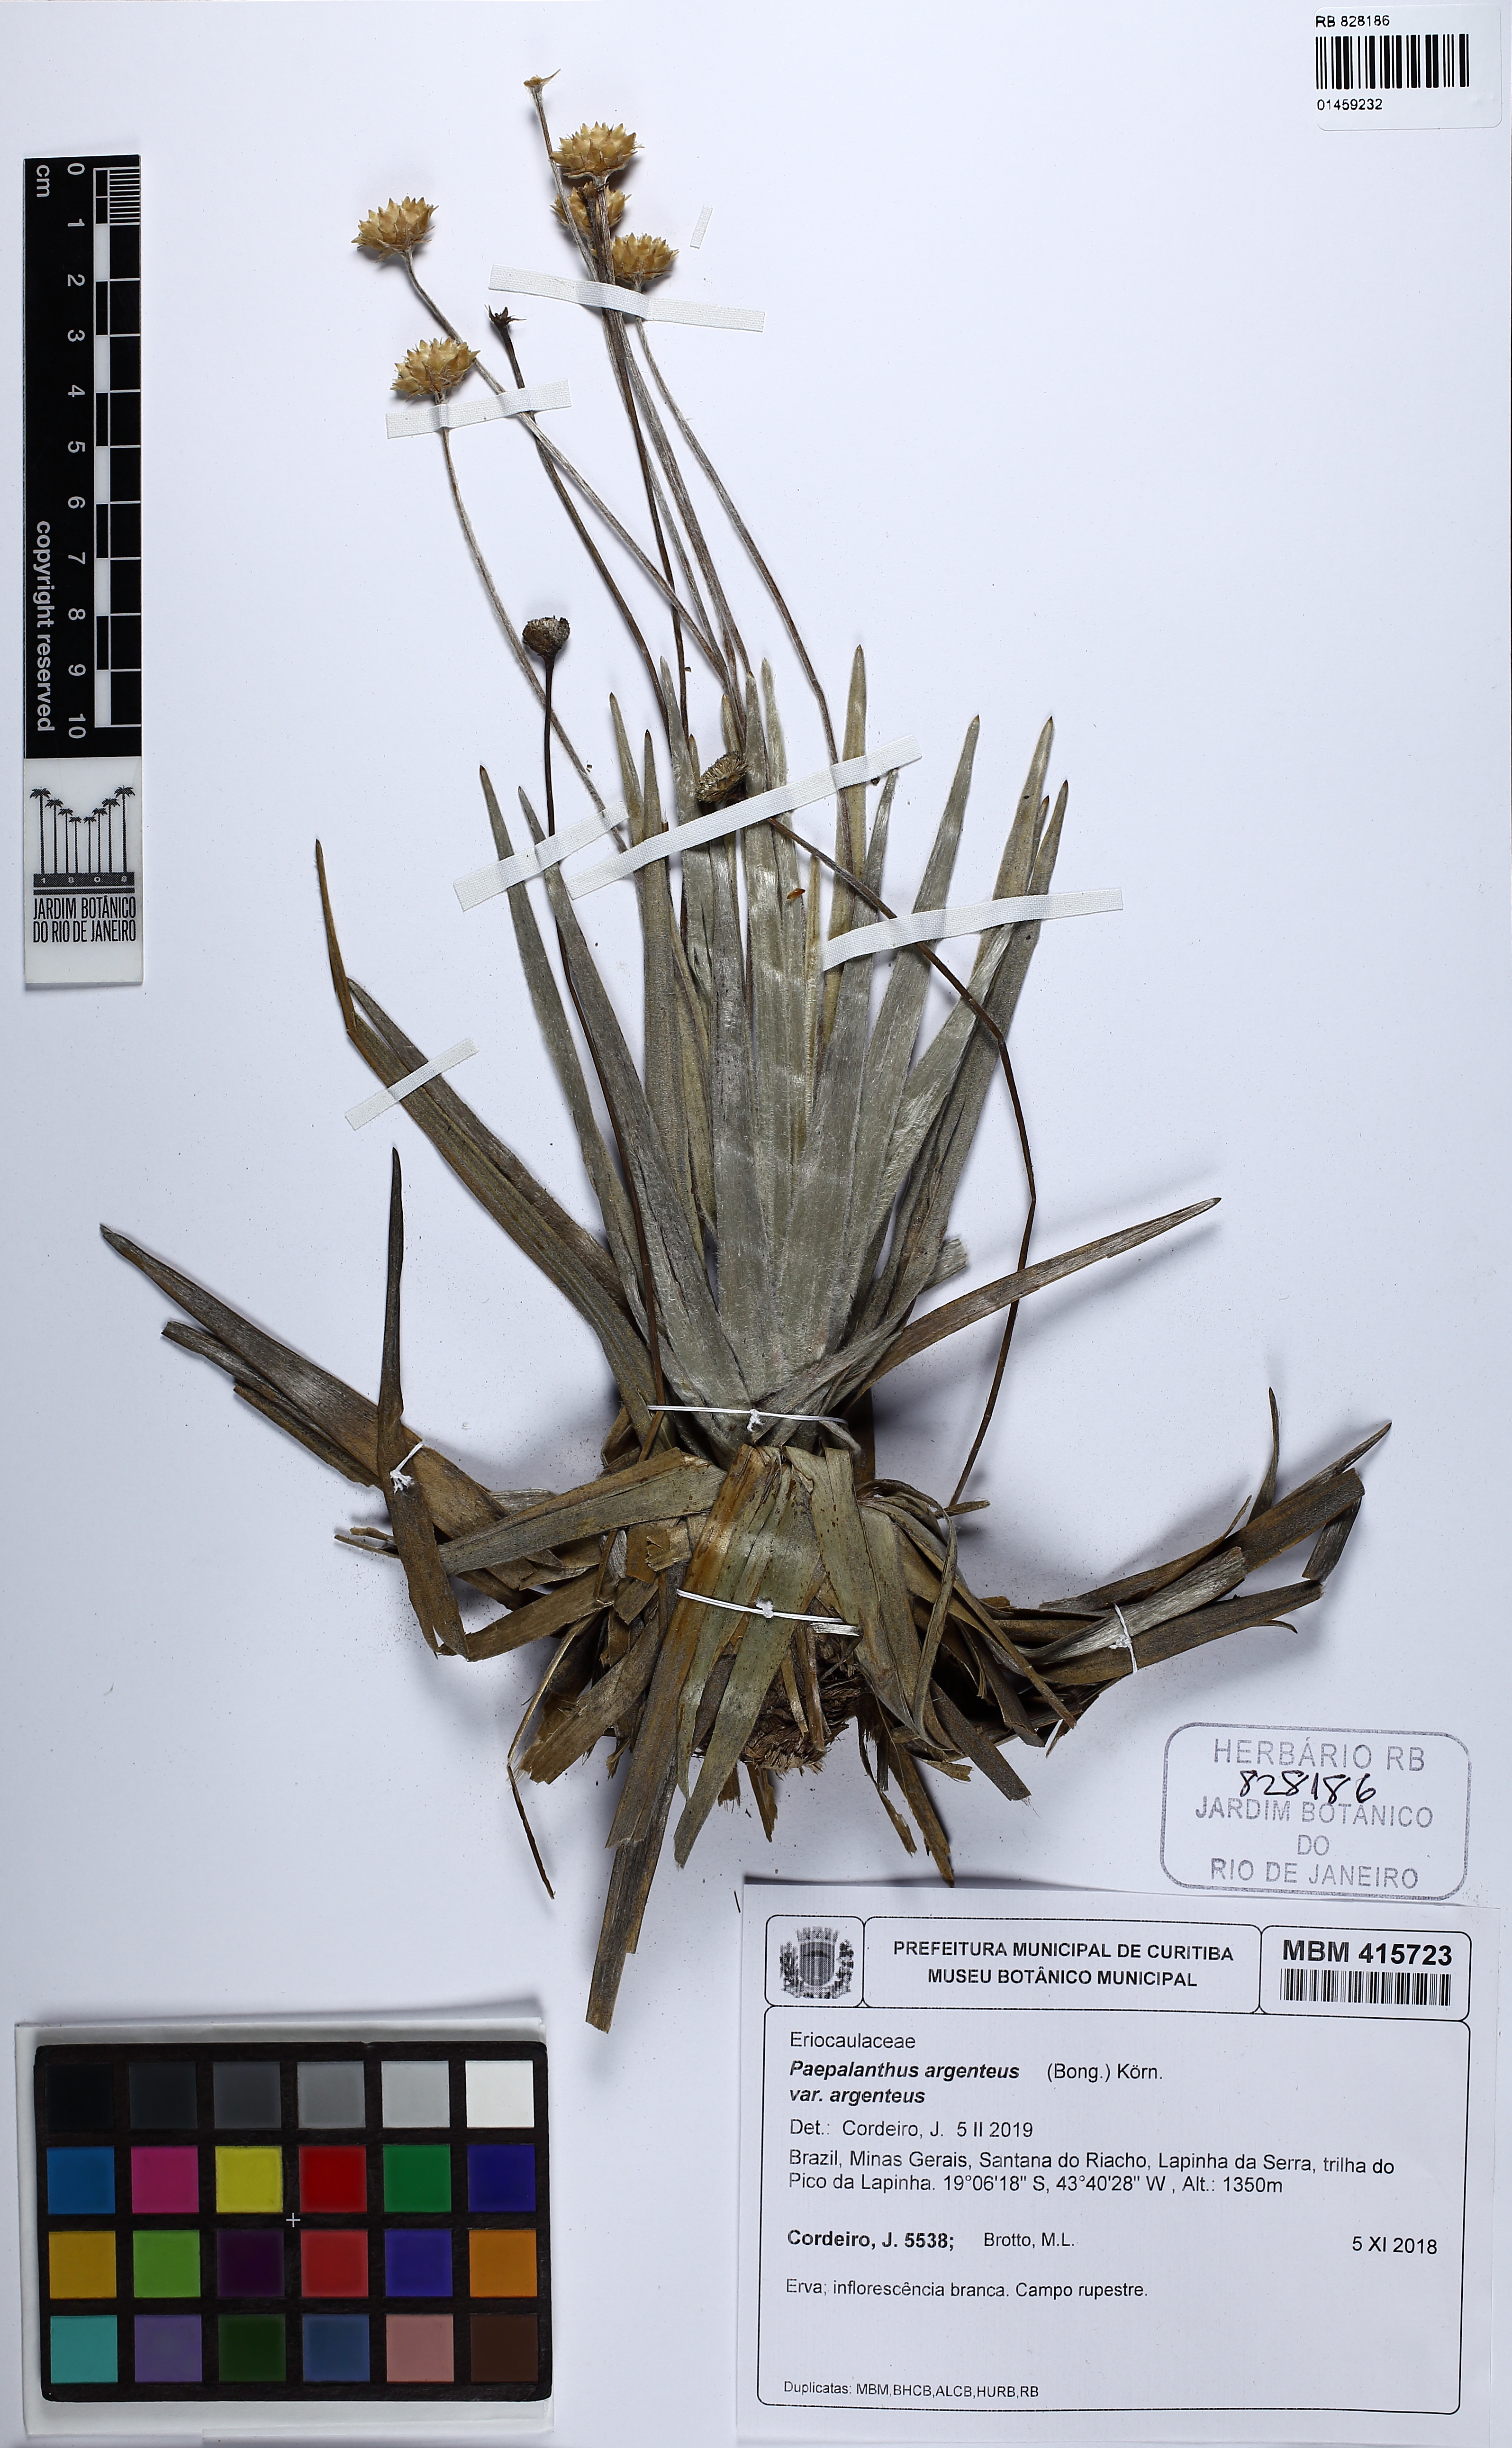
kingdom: Plantae
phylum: Tracheophyta
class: Liliopsida
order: Poales
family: Eriocaulaceae
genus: Paepalanthus
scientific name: Paepalanthus argenteus
